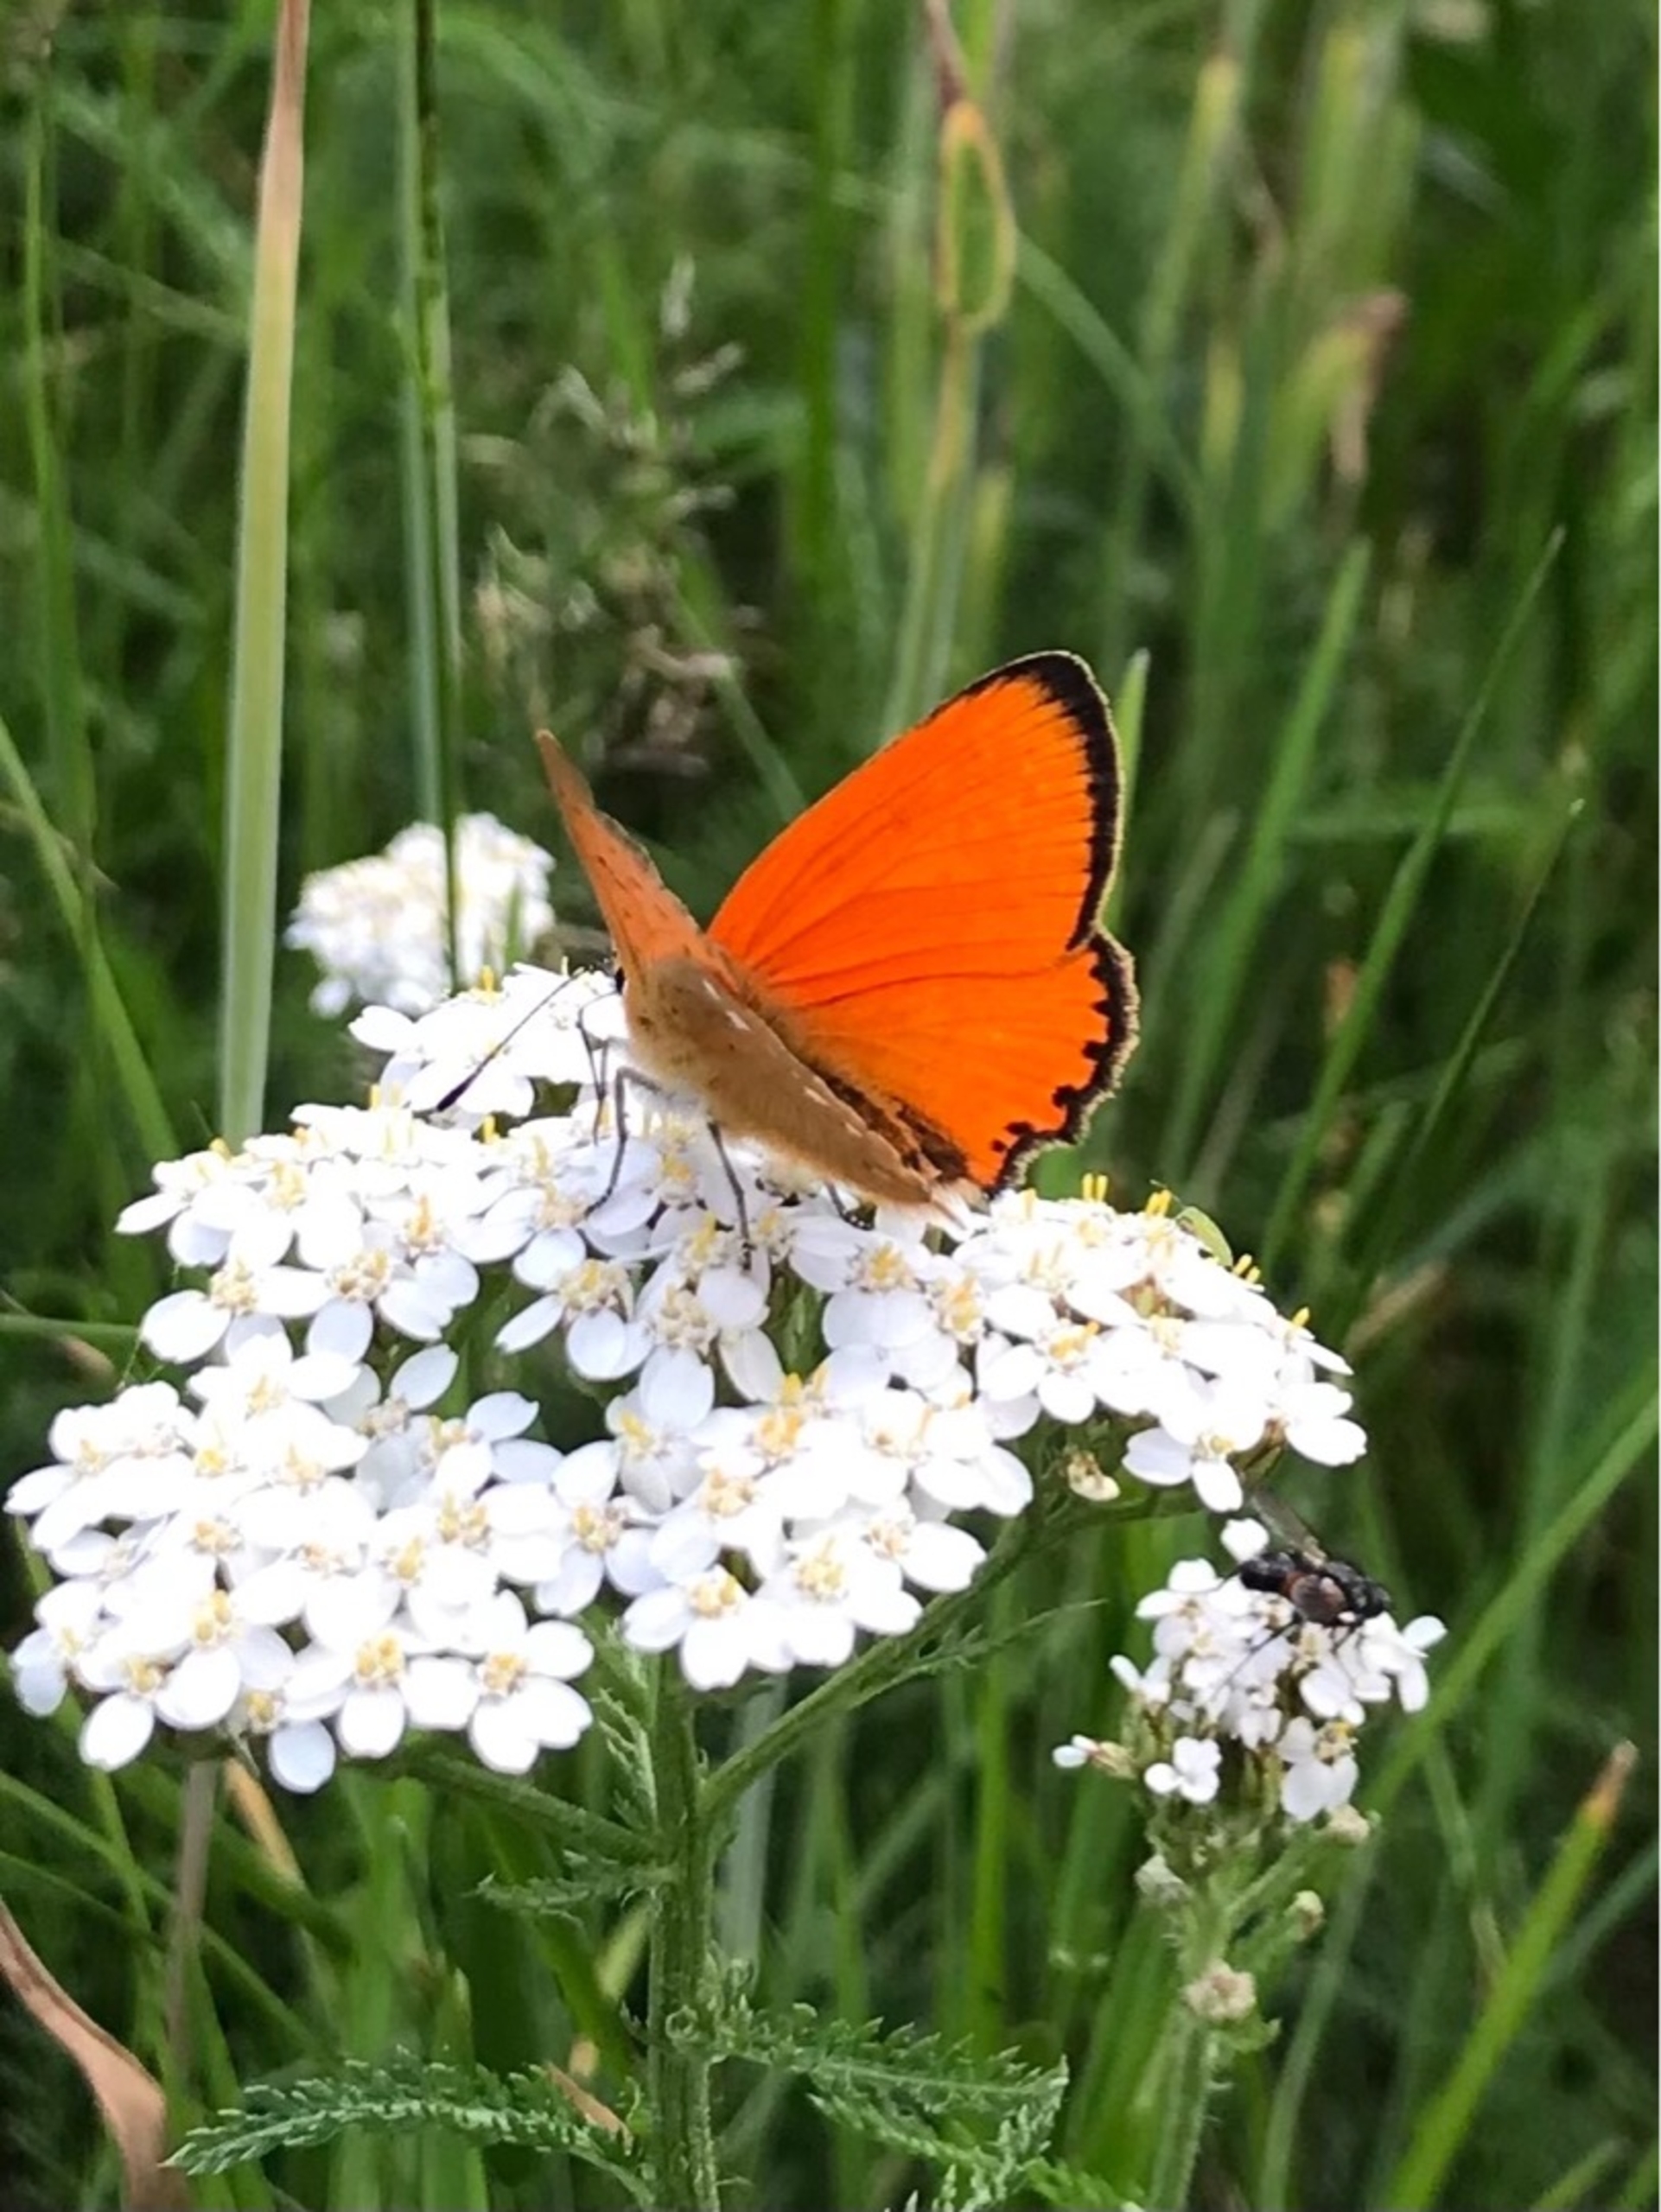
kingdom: Animalia
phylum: Arthropoda
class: Insecta
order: Lepidoptera
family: Lycaenidae
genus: Lycaena
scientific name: Lycaena virgaureae
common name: Dukatsommerfugl
